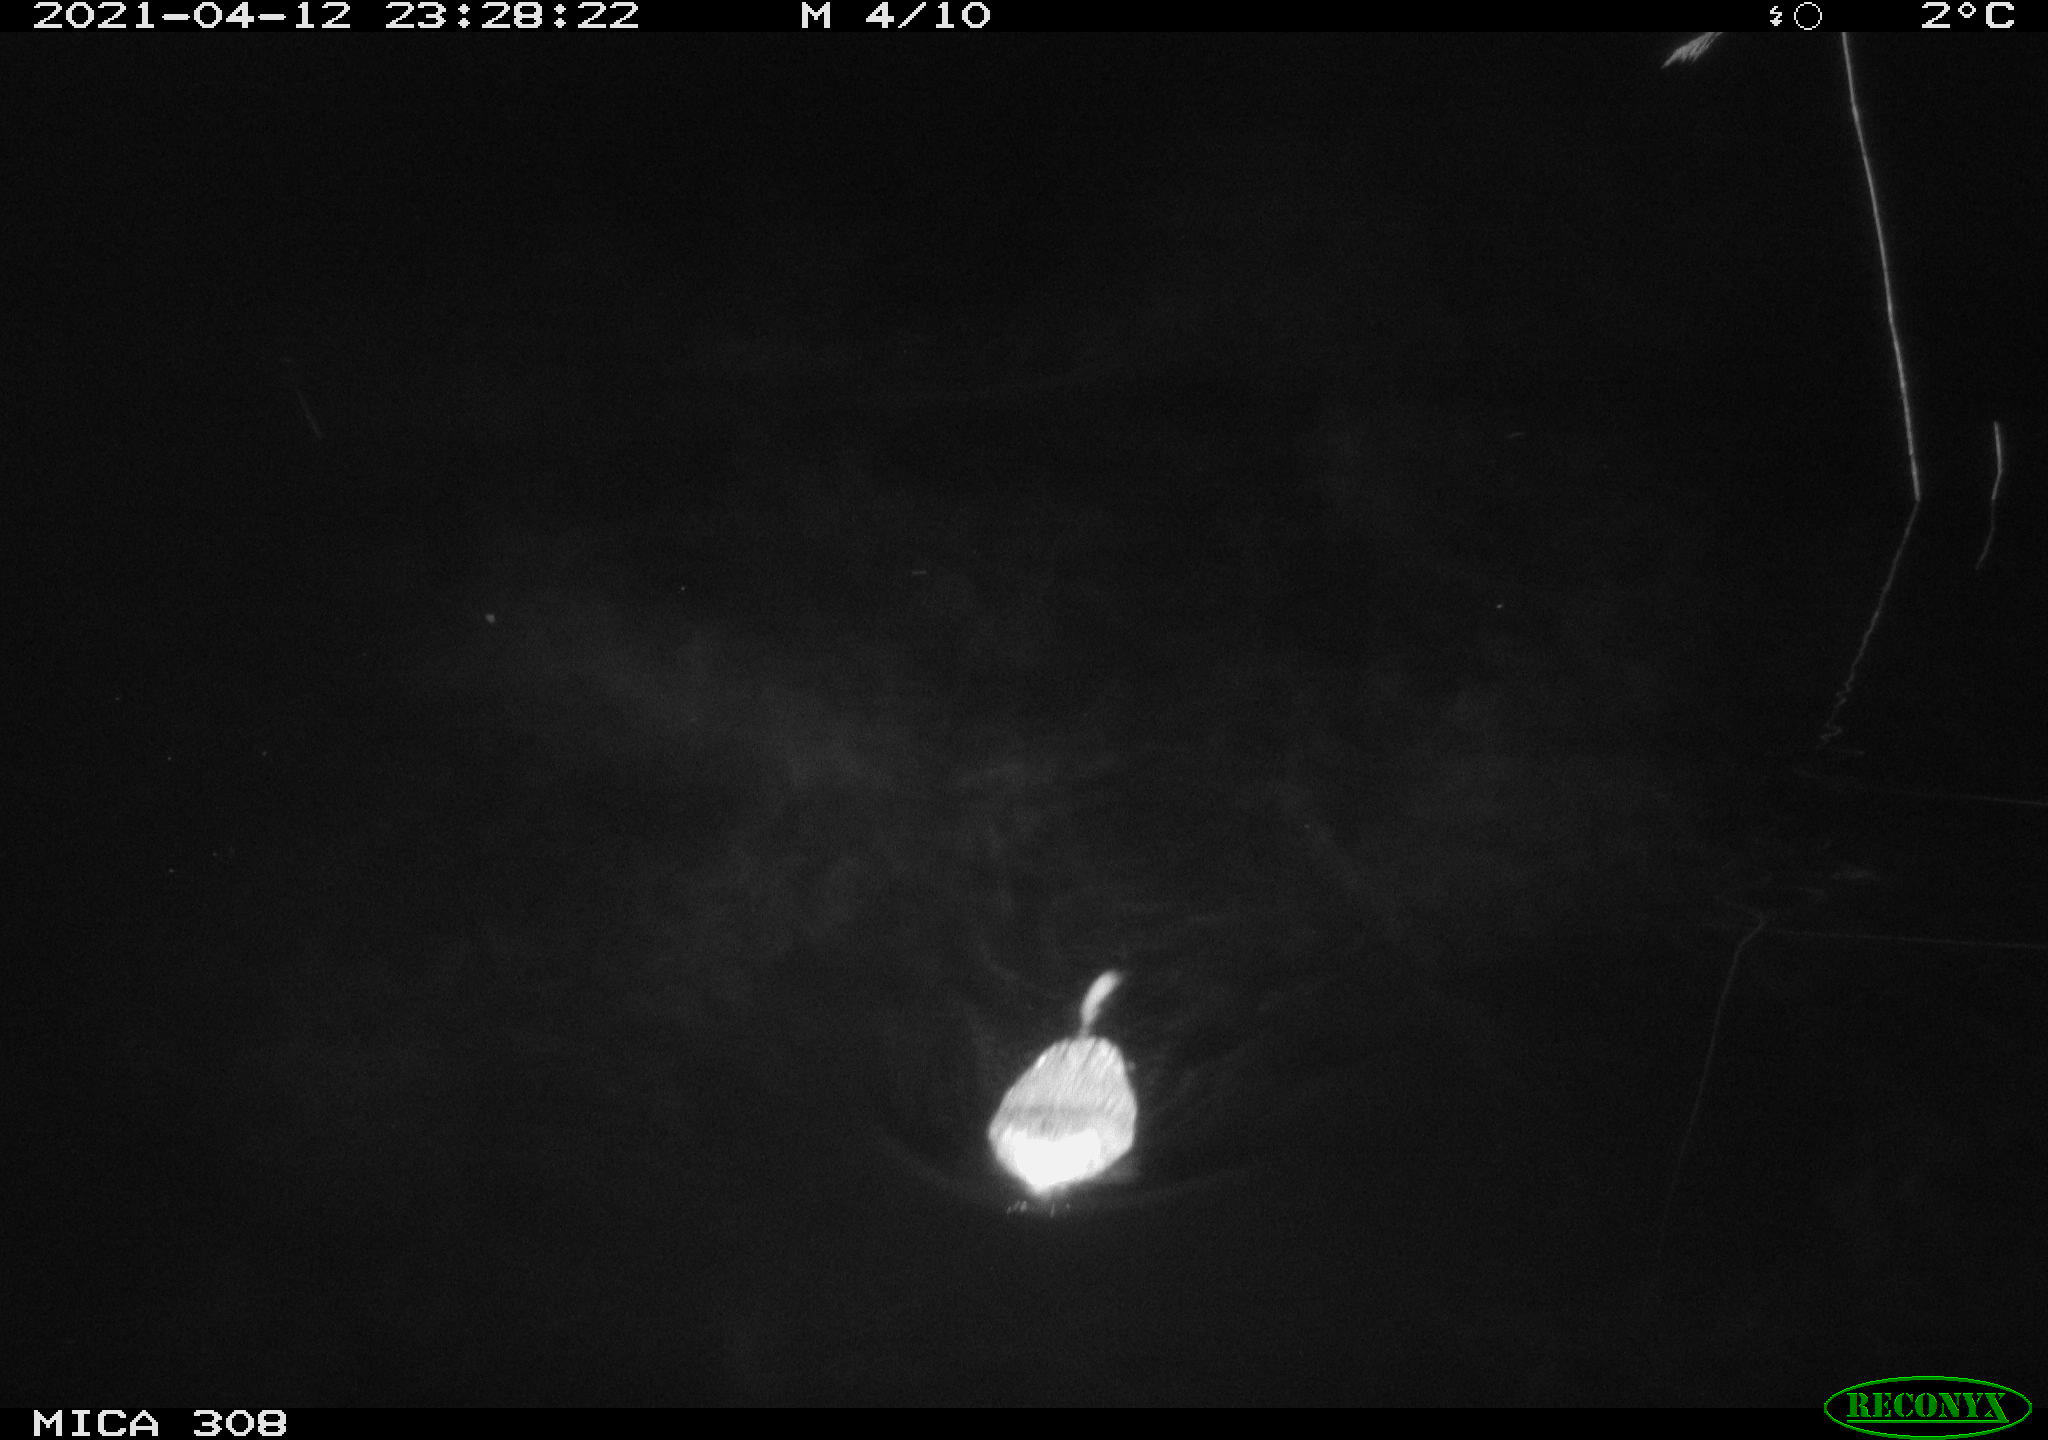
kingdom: Animalia
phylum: Chordata
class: Mammalia
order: Rodentia
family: Cricetidae
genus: Ondatra
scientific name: Ondatra zibethicus
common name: Muskrat
